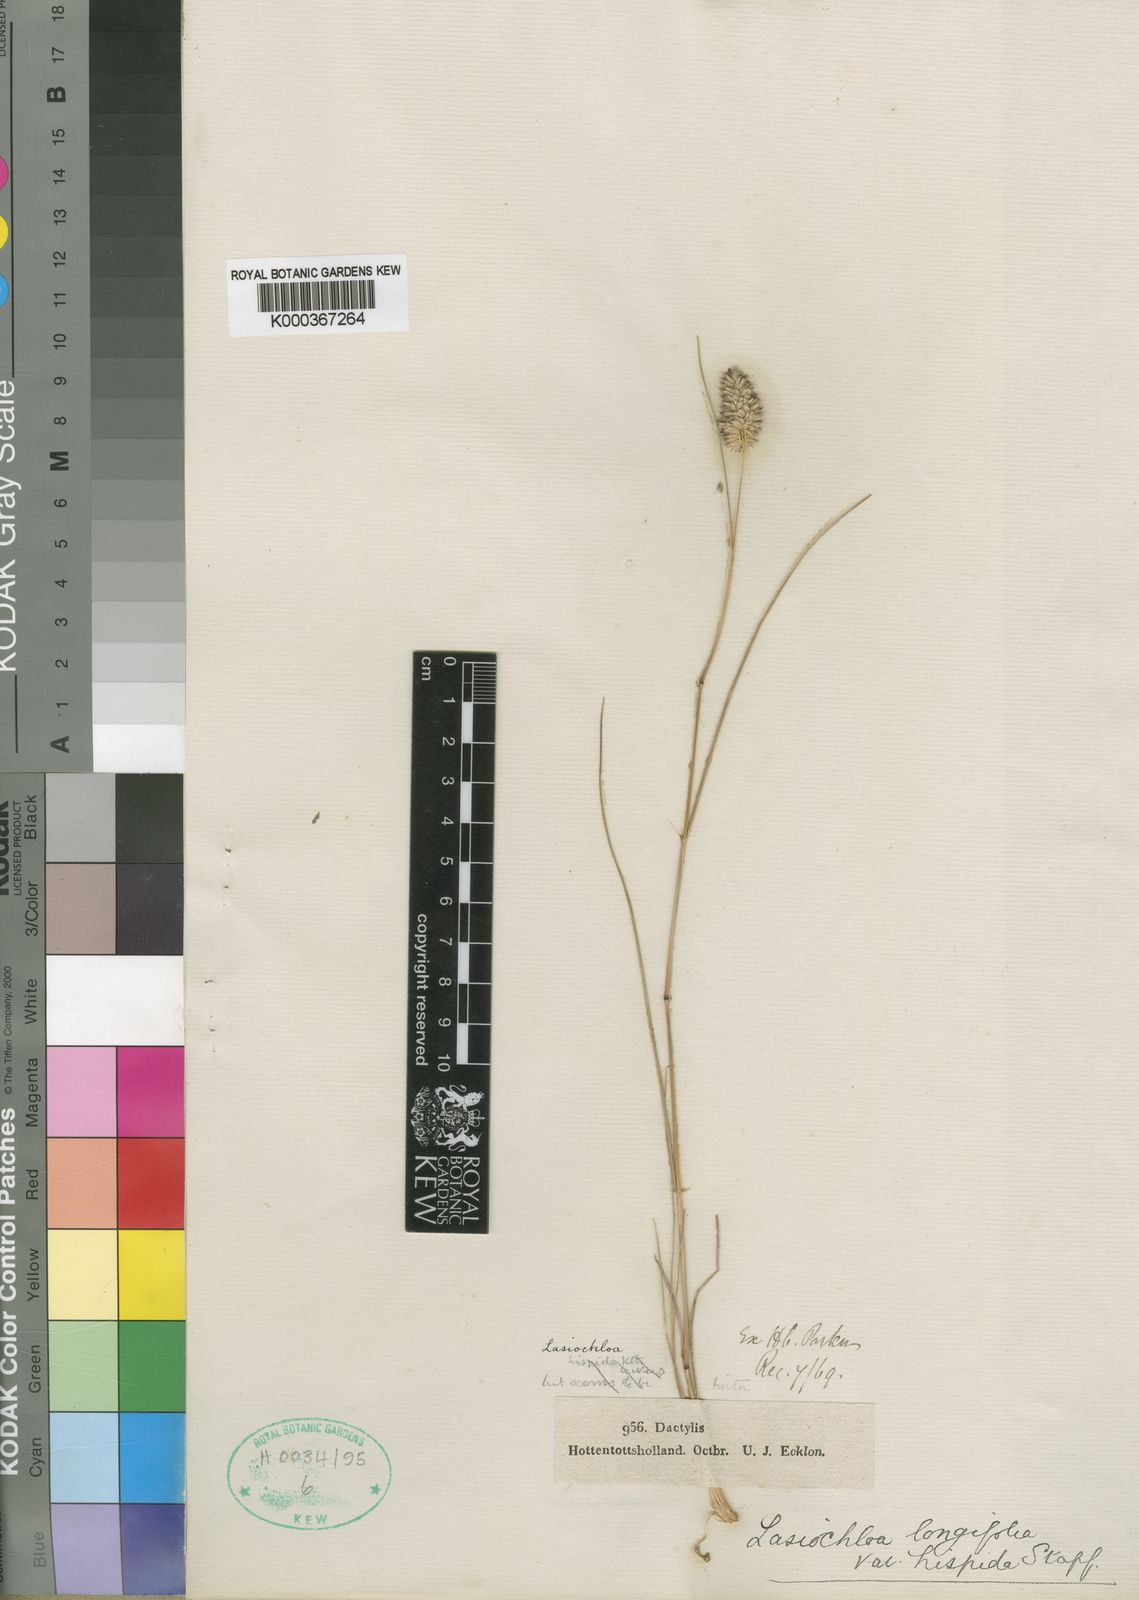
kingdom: Plantae
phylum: Tracheophyta
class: Liliopsida
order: Poales
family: Poaceae
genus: Tribolium
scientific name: Tribolium hispidum
